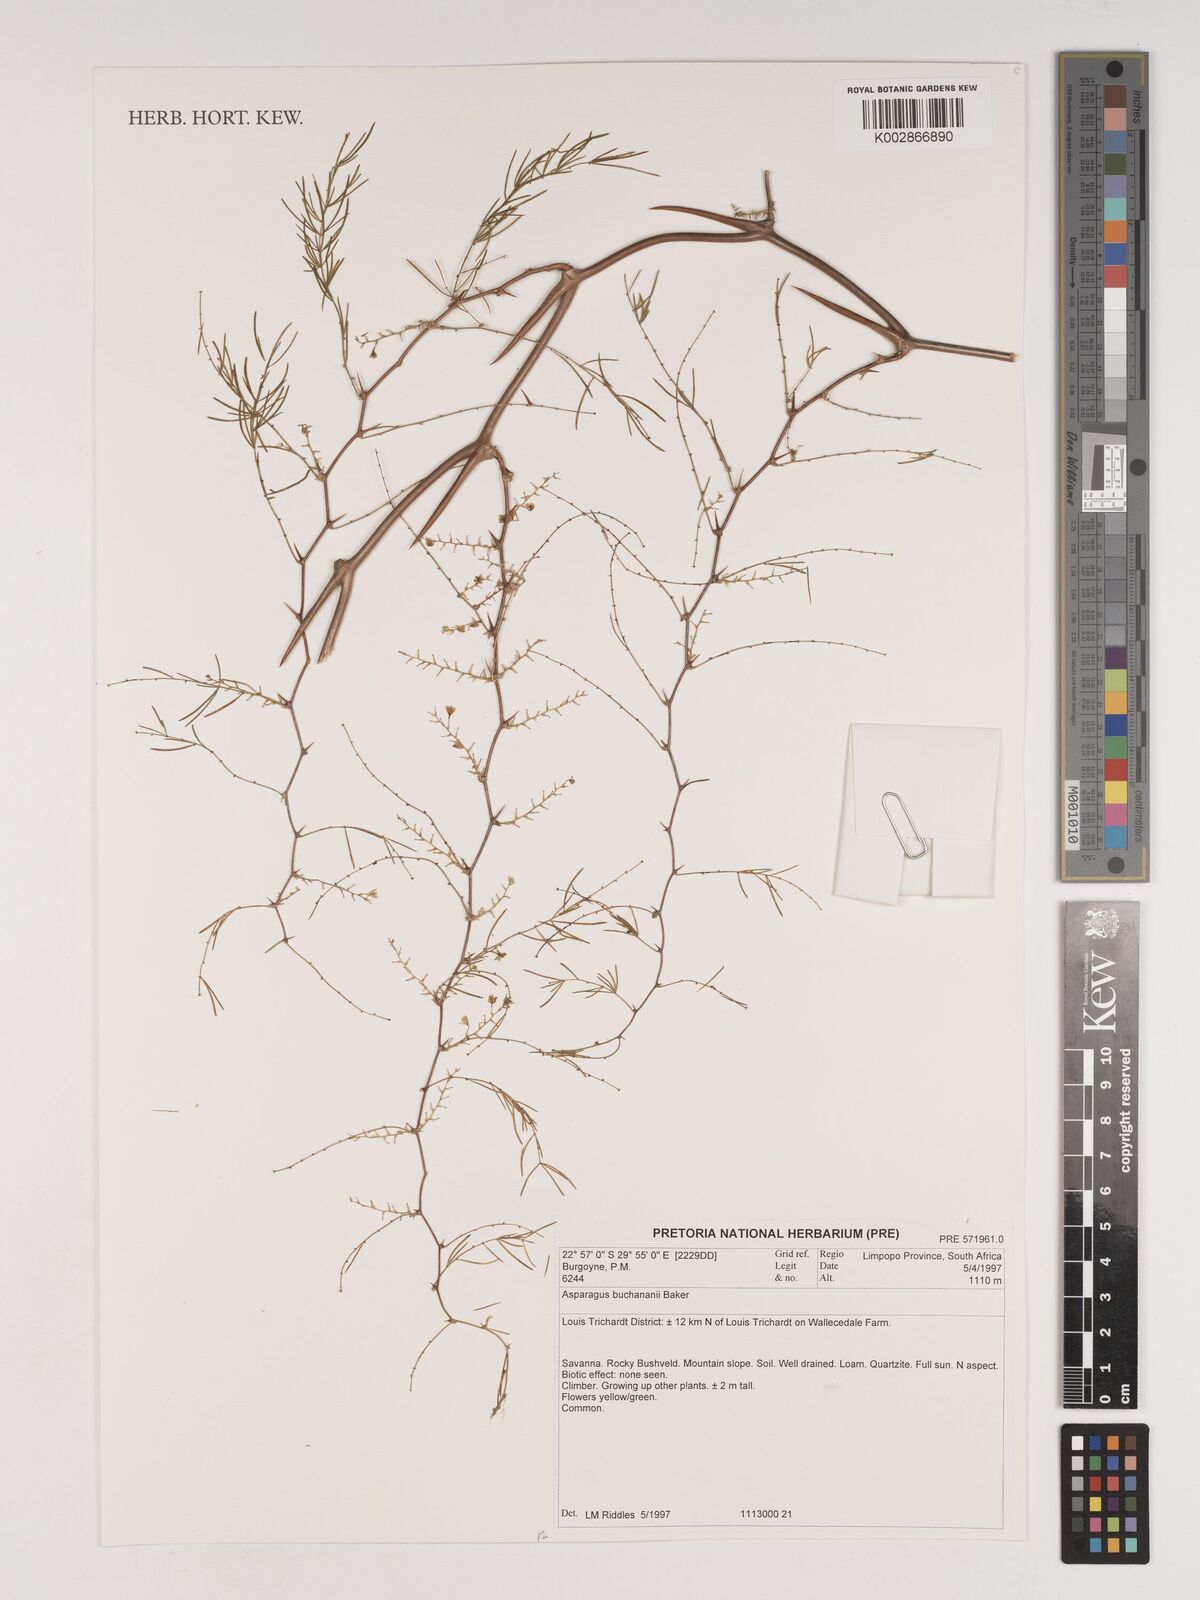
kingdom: Plantae
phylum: Tracheophyta
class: Liliopsida
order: Asparagales
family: Asparagaceae
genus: Asparagus
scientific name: Asparagus buchananii
